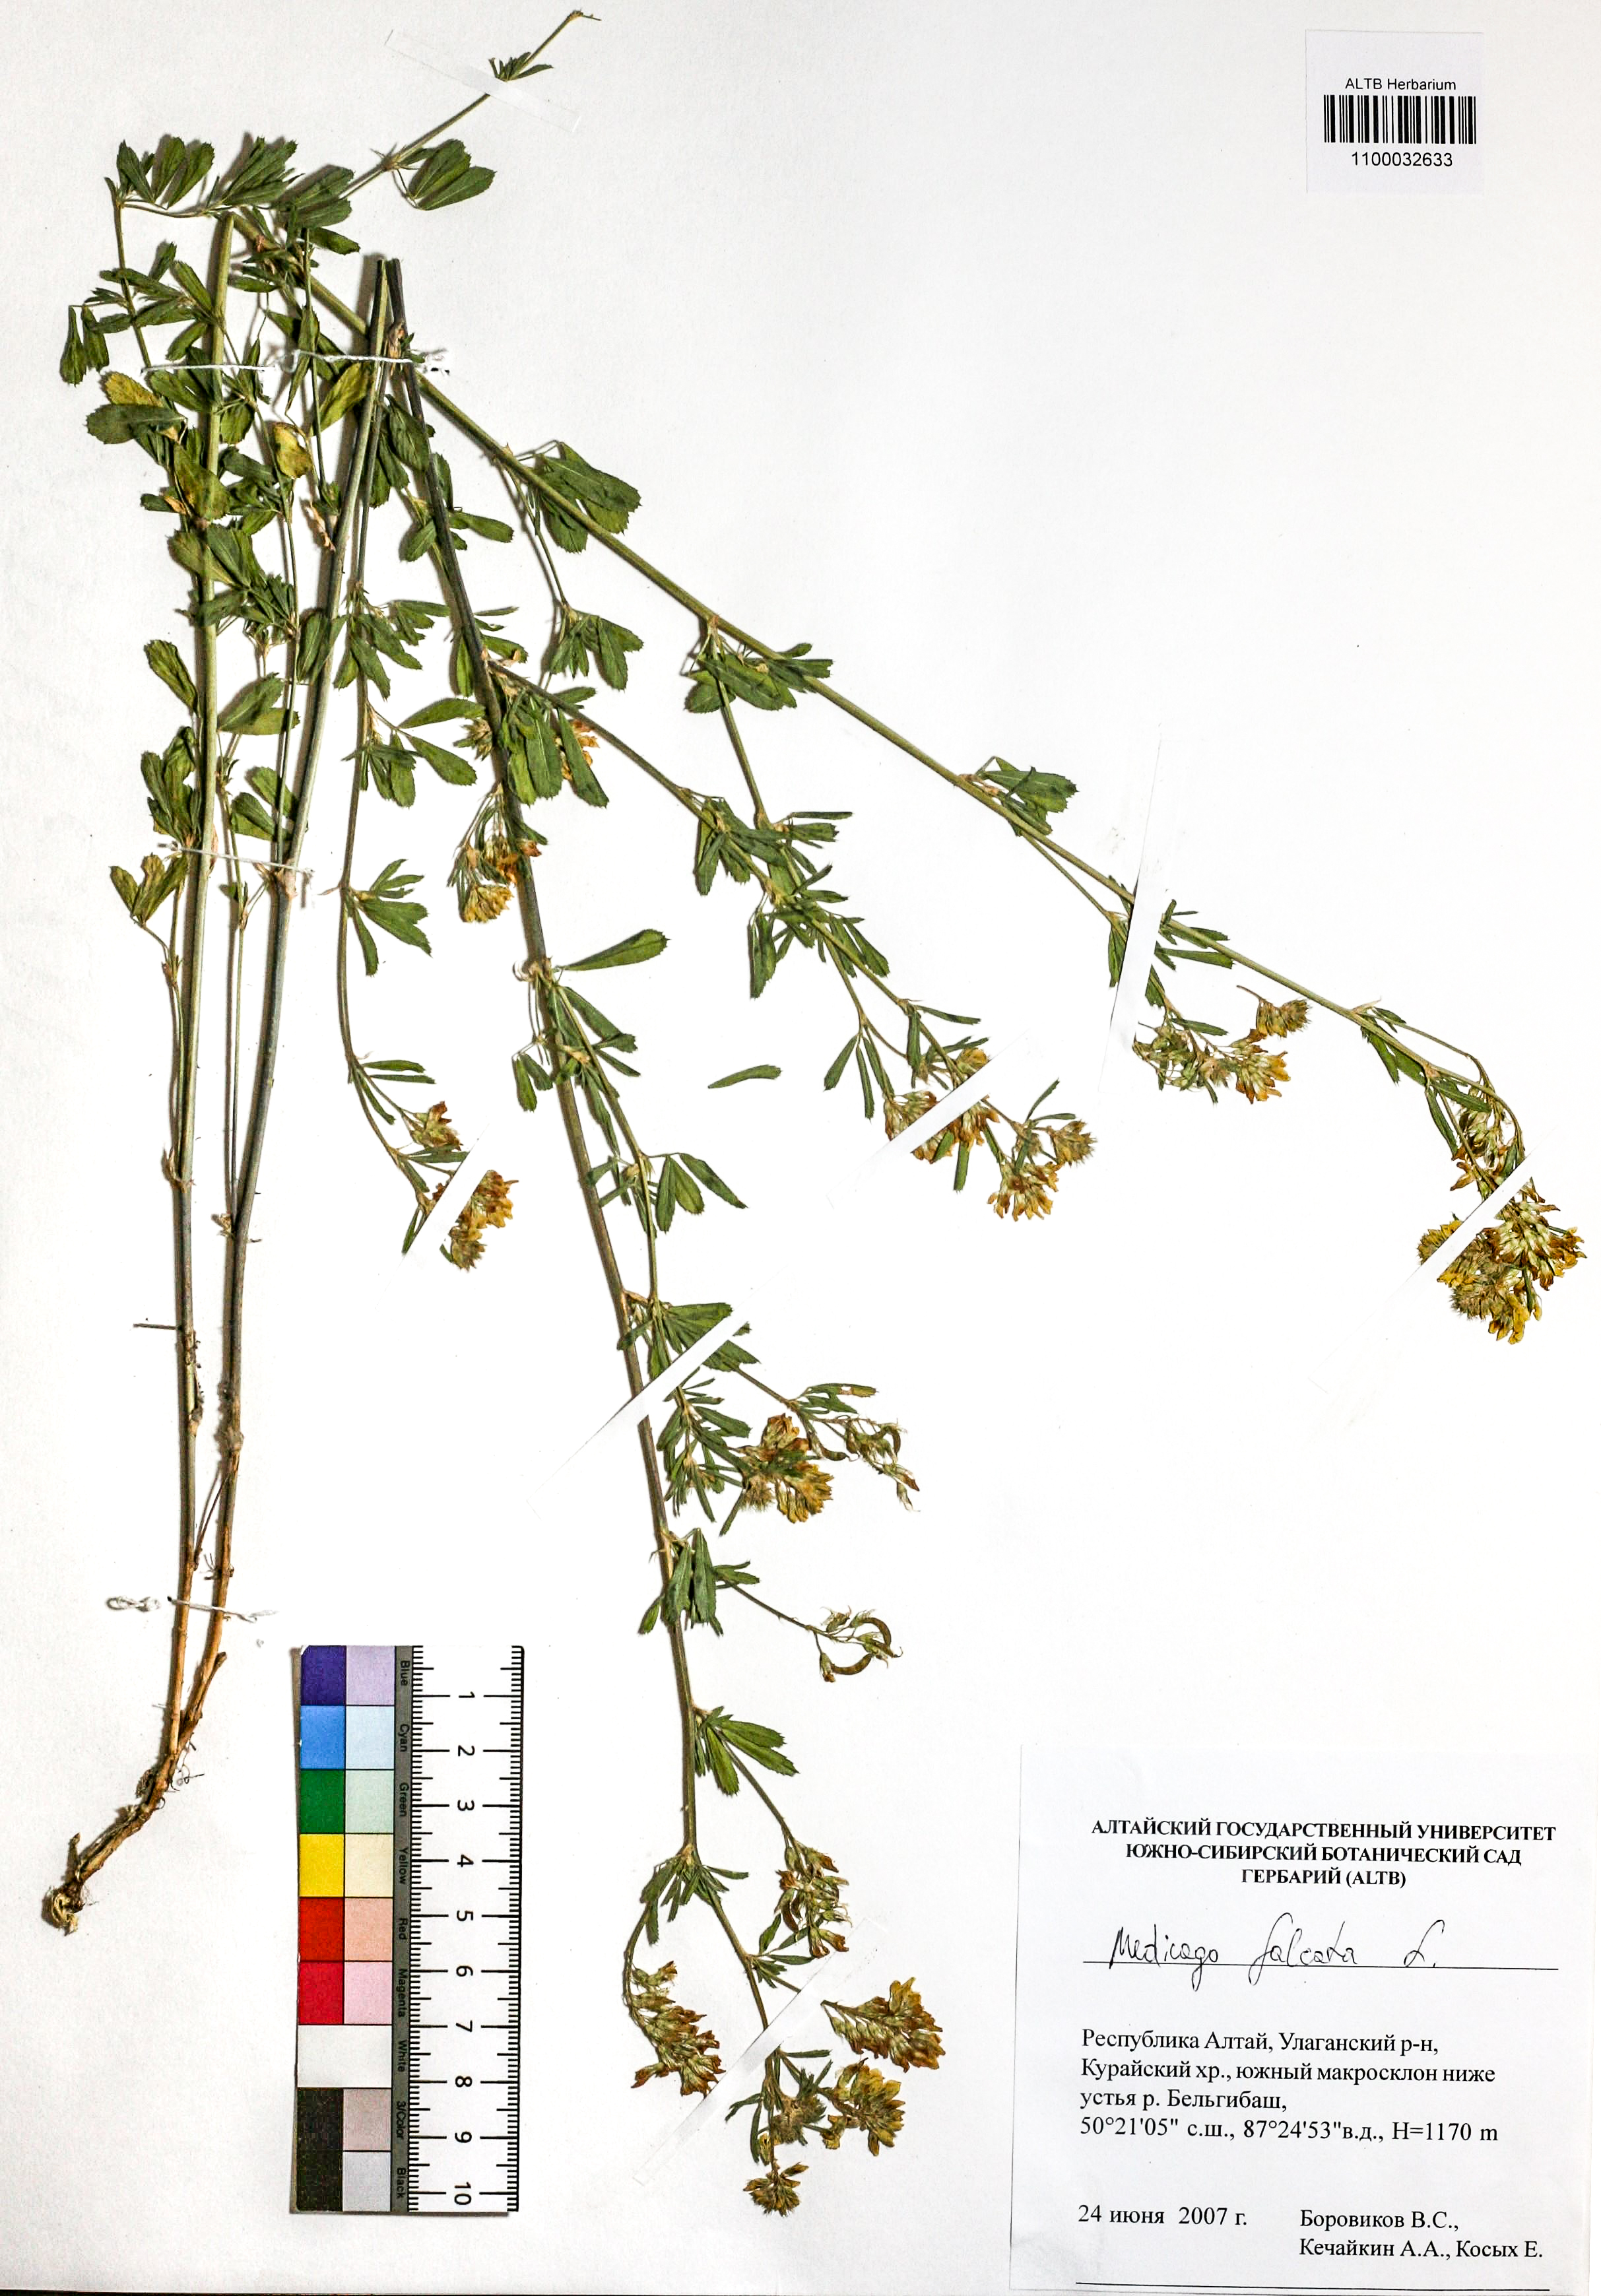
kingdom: Plantae
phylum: Tracheophyta
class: Magnoliopsida
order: Fabales
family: Fabaceae
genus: Medicago
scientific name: Medicago falcata
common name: Sickle medick
